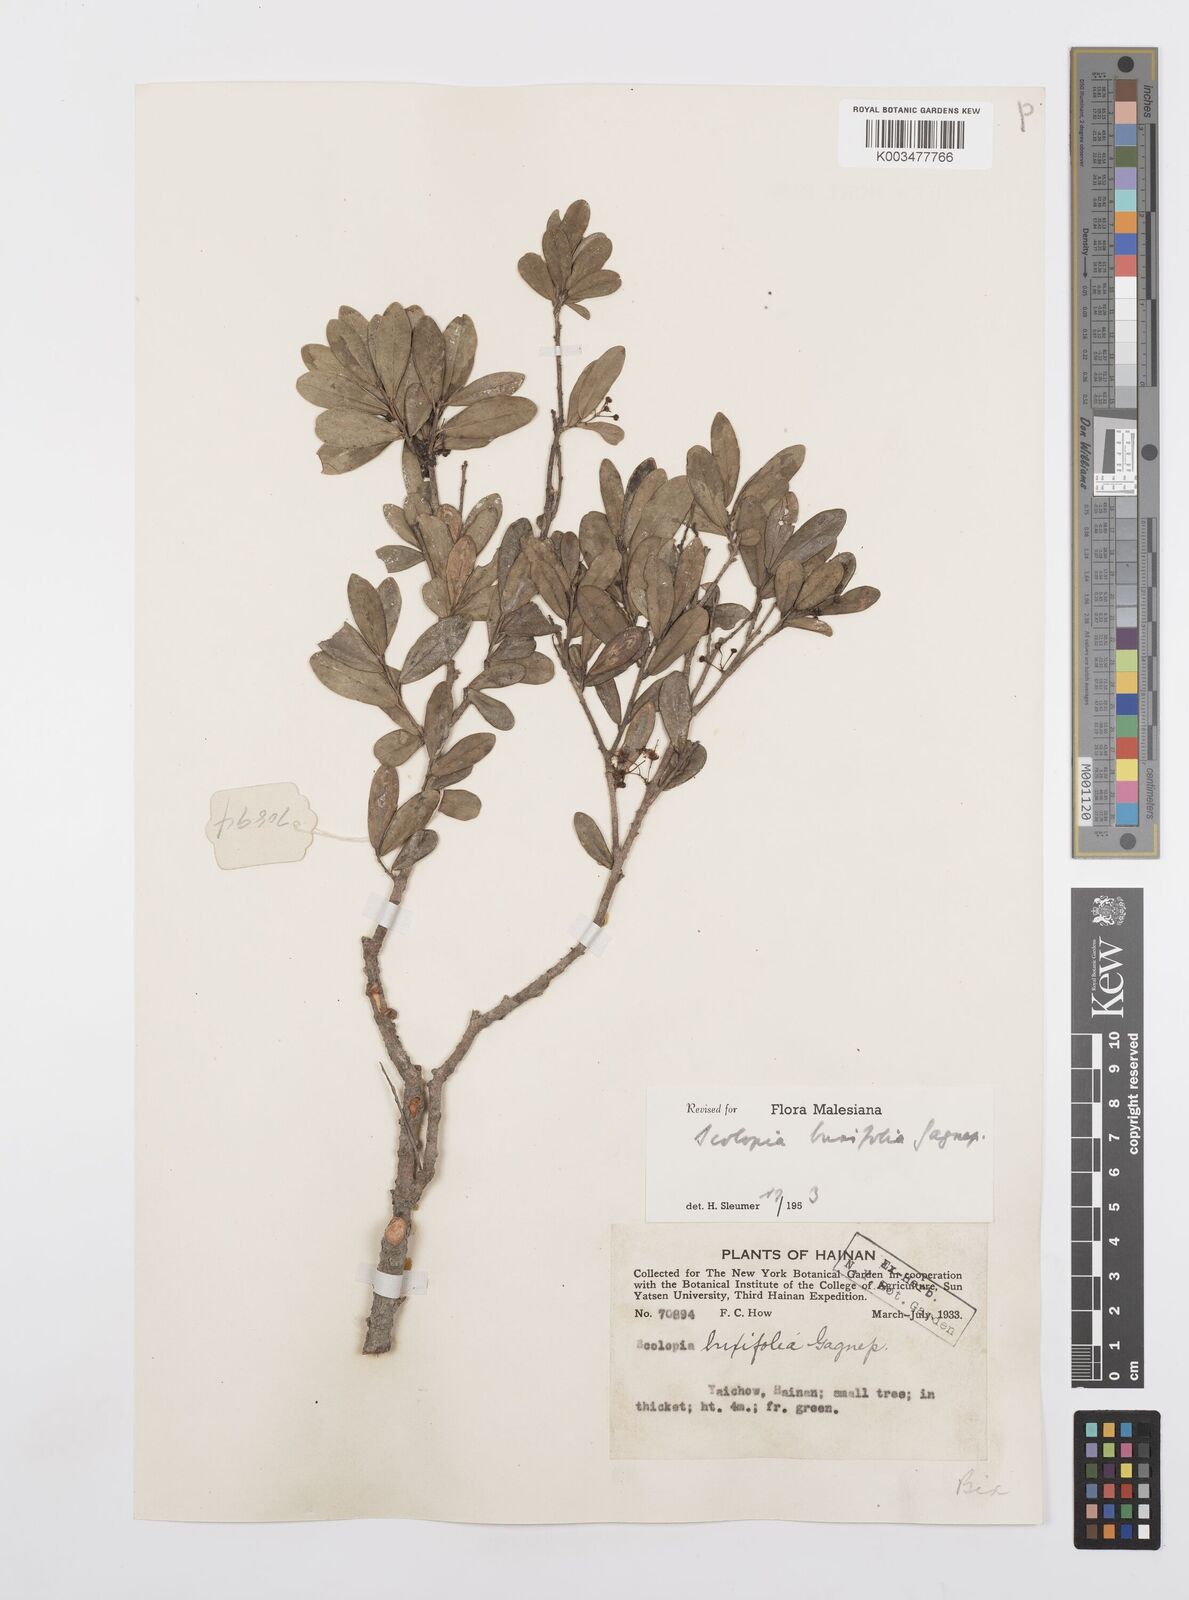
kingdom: Plantae
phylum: Tracheophyta
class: Magnoliopsida
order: Malpighiales
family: Salicaceae
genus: Scolopia
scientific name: Scolopia buxifolia
